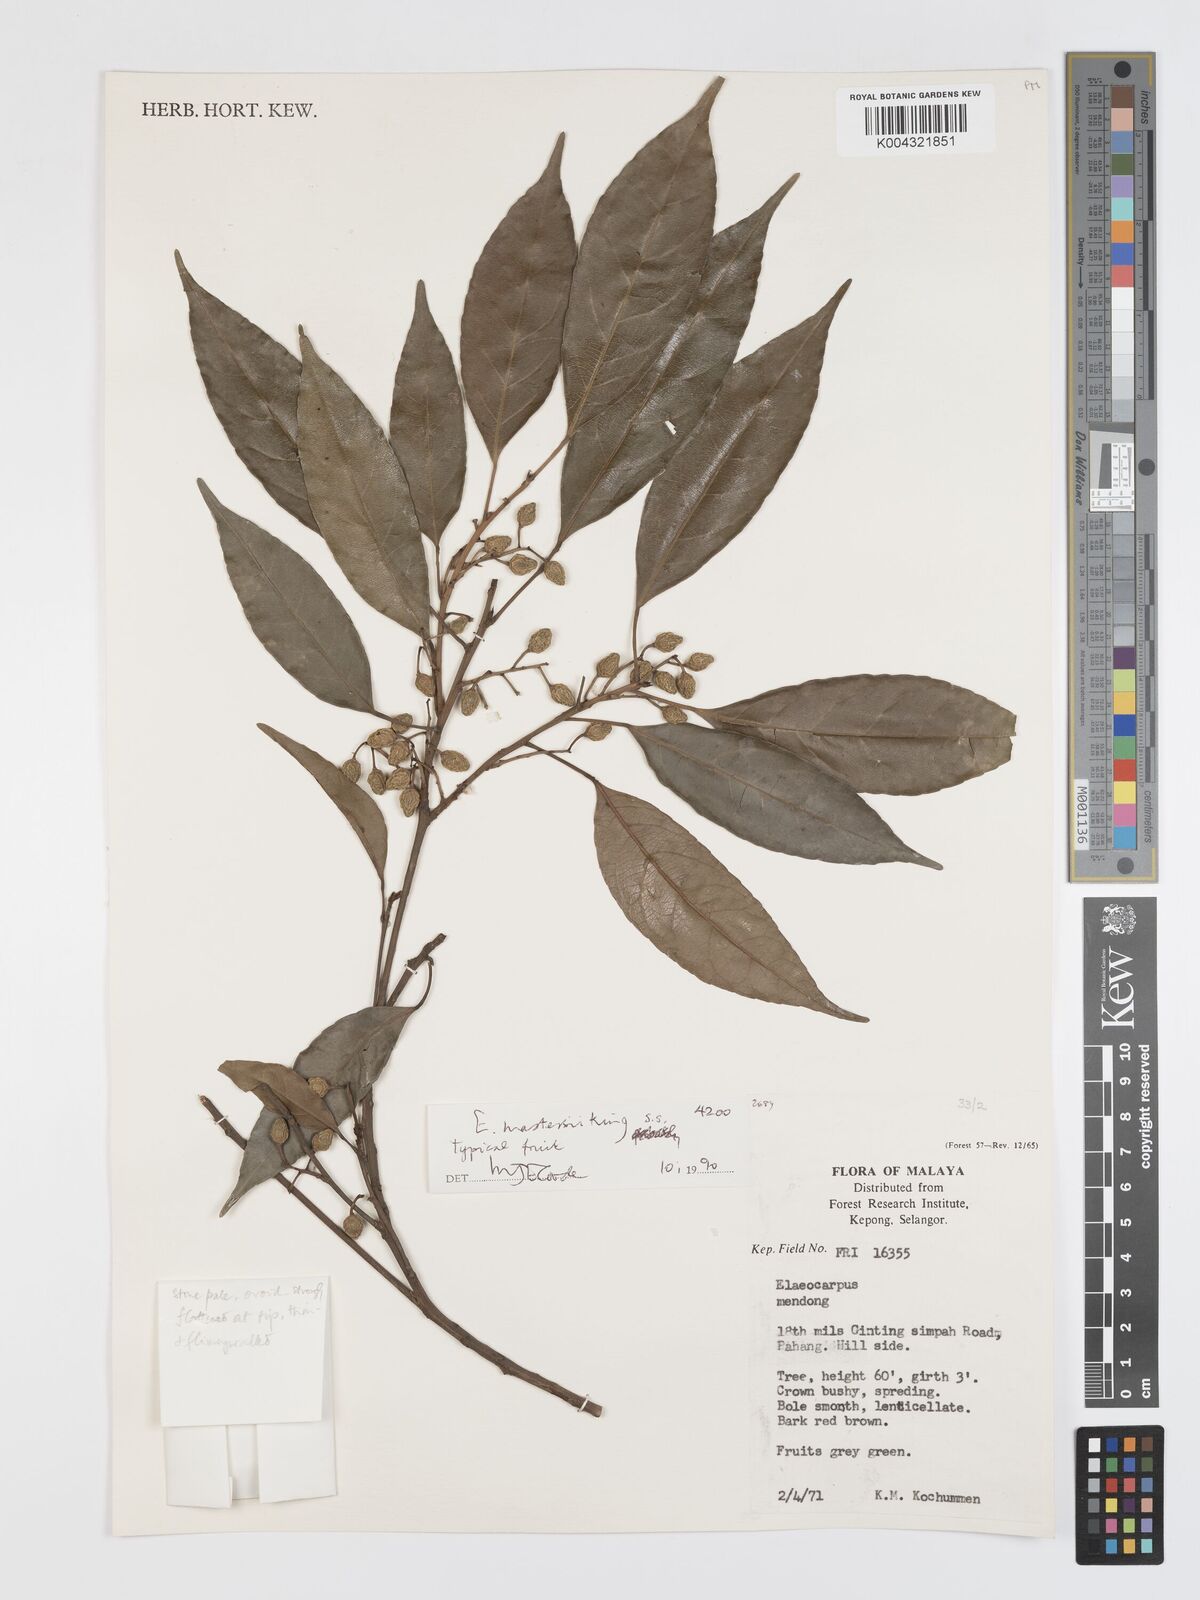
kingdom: Plantae
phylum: Tracheophyta
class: Magnoliopsida
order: Oxalidales
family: Elaeocarpaceae
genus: Elaeocarpus
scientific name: Elaeocarpus mastersii
